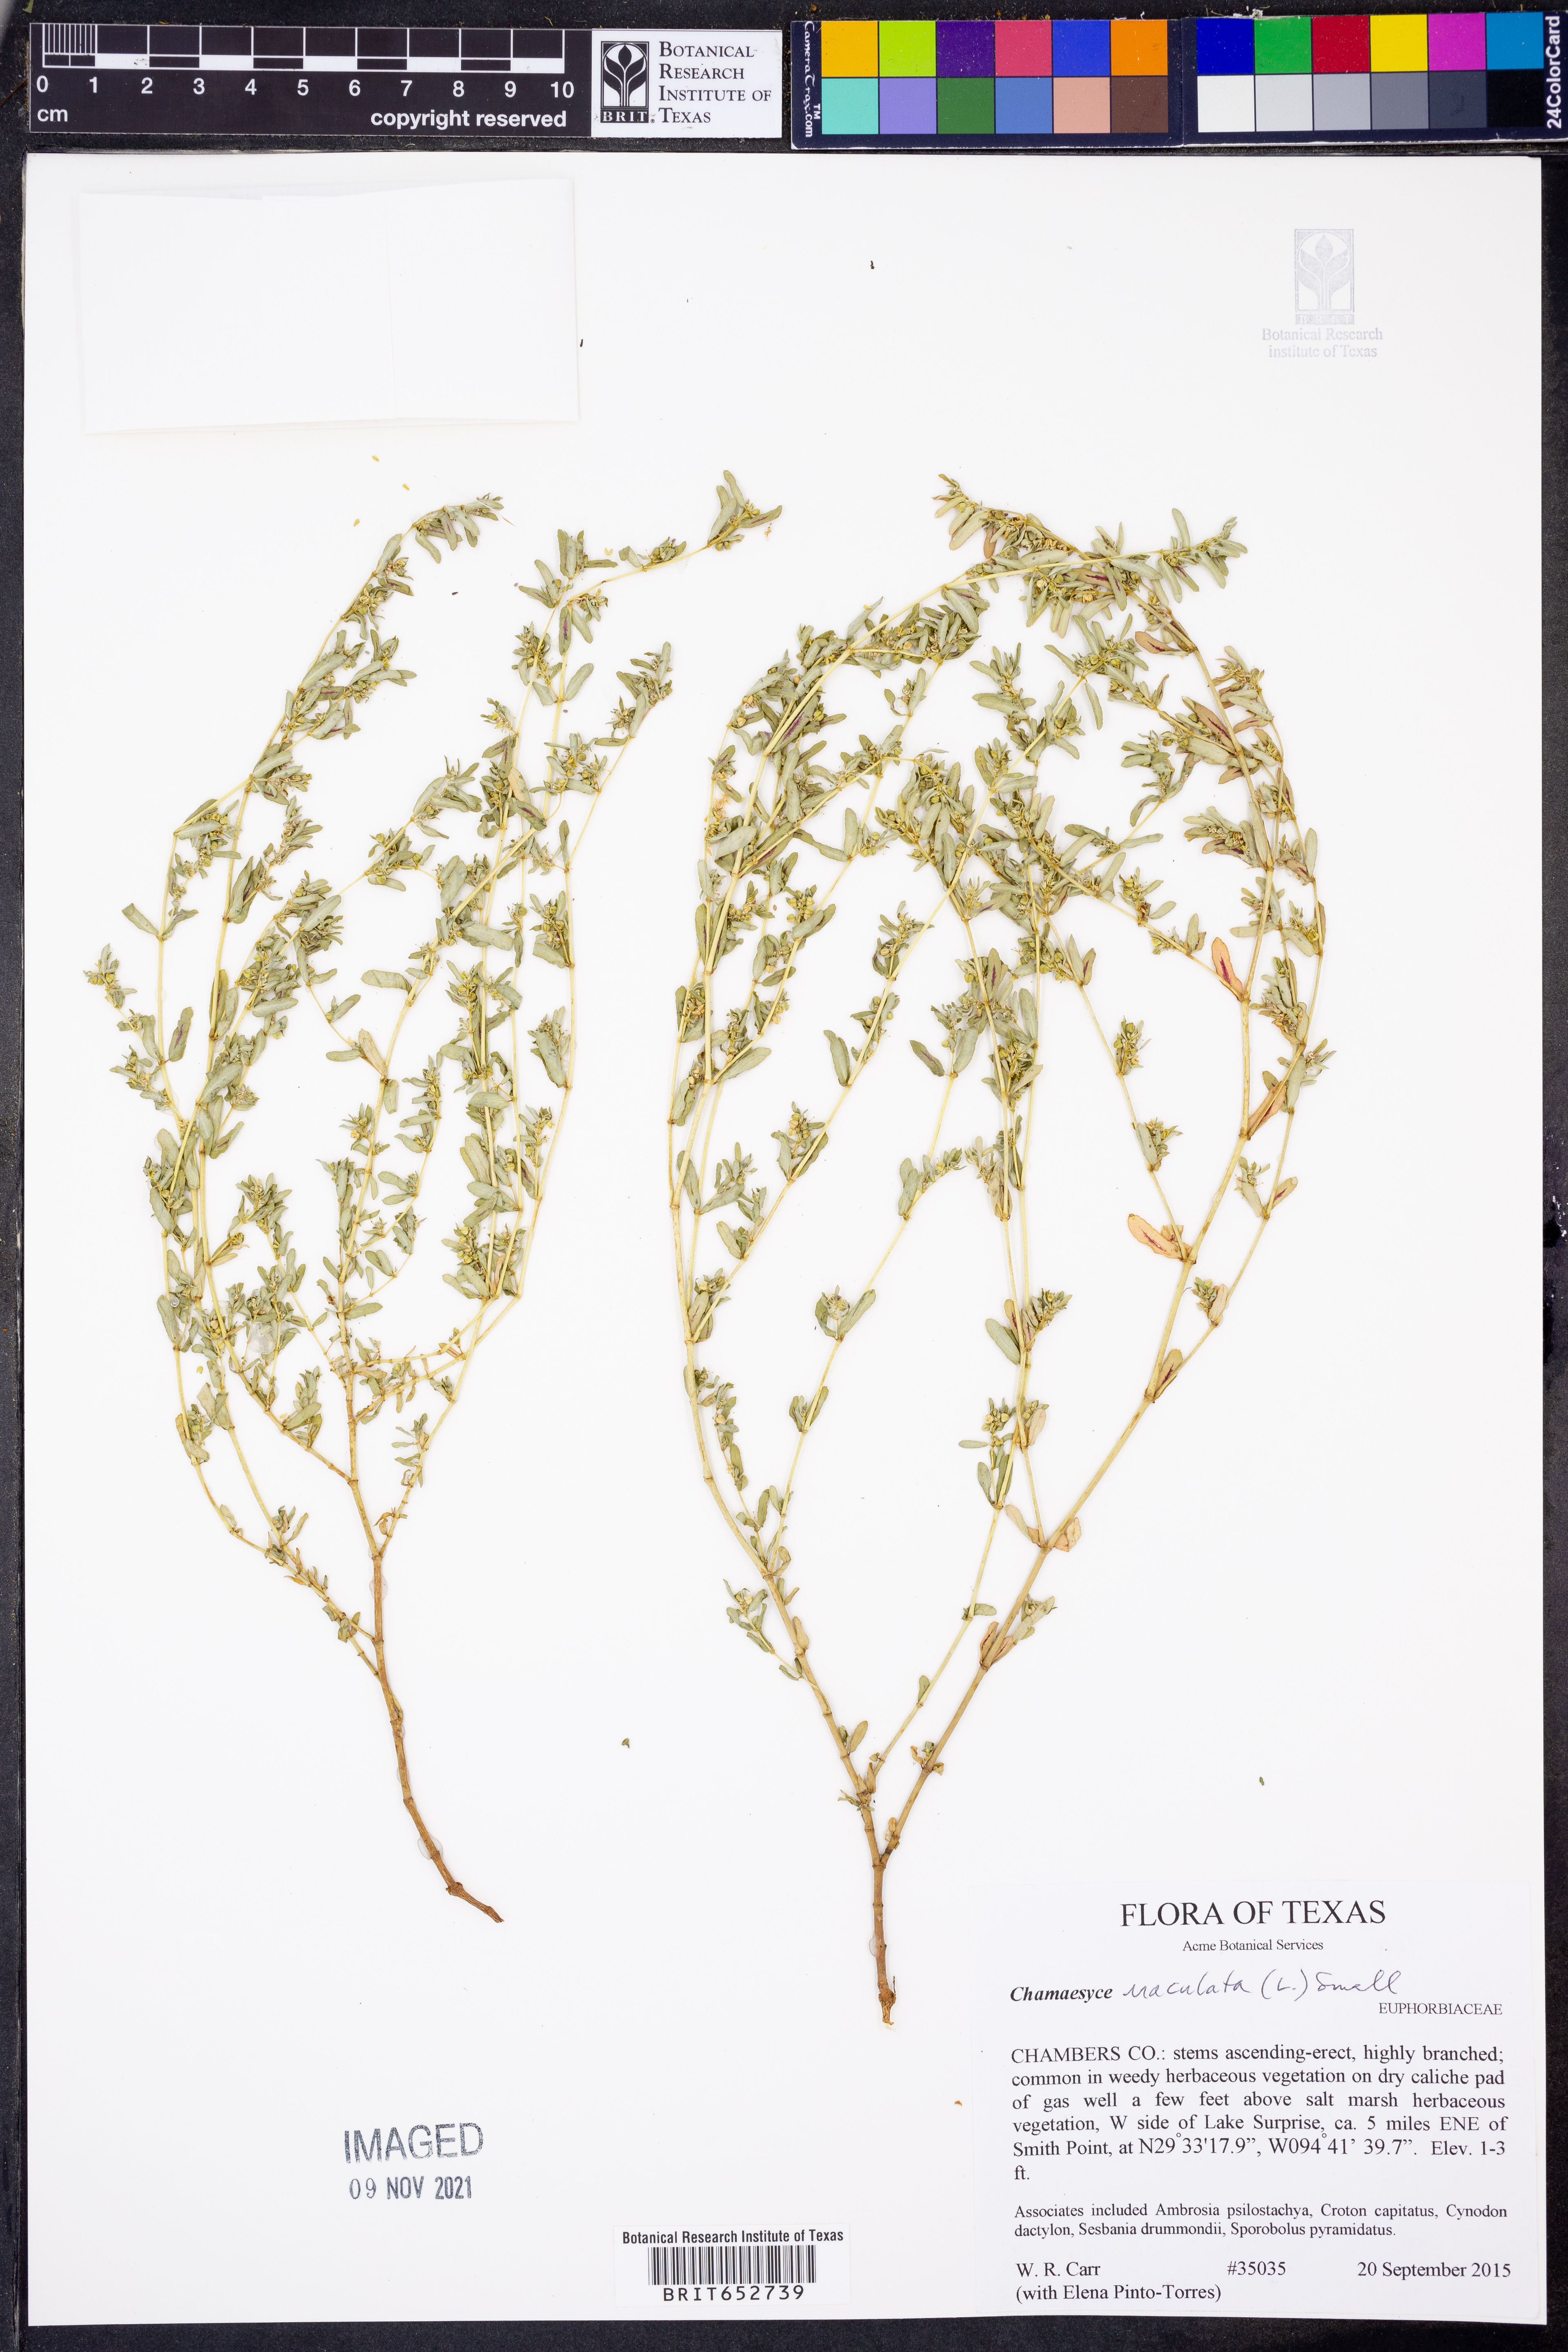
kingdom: Plantae
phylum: Tracheophyta
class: Magnoliopsida
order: Malpighiales
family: Euphorbiaceae
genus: Euphorbia
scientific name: Euphorbia maculata
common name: Spotted spurge
